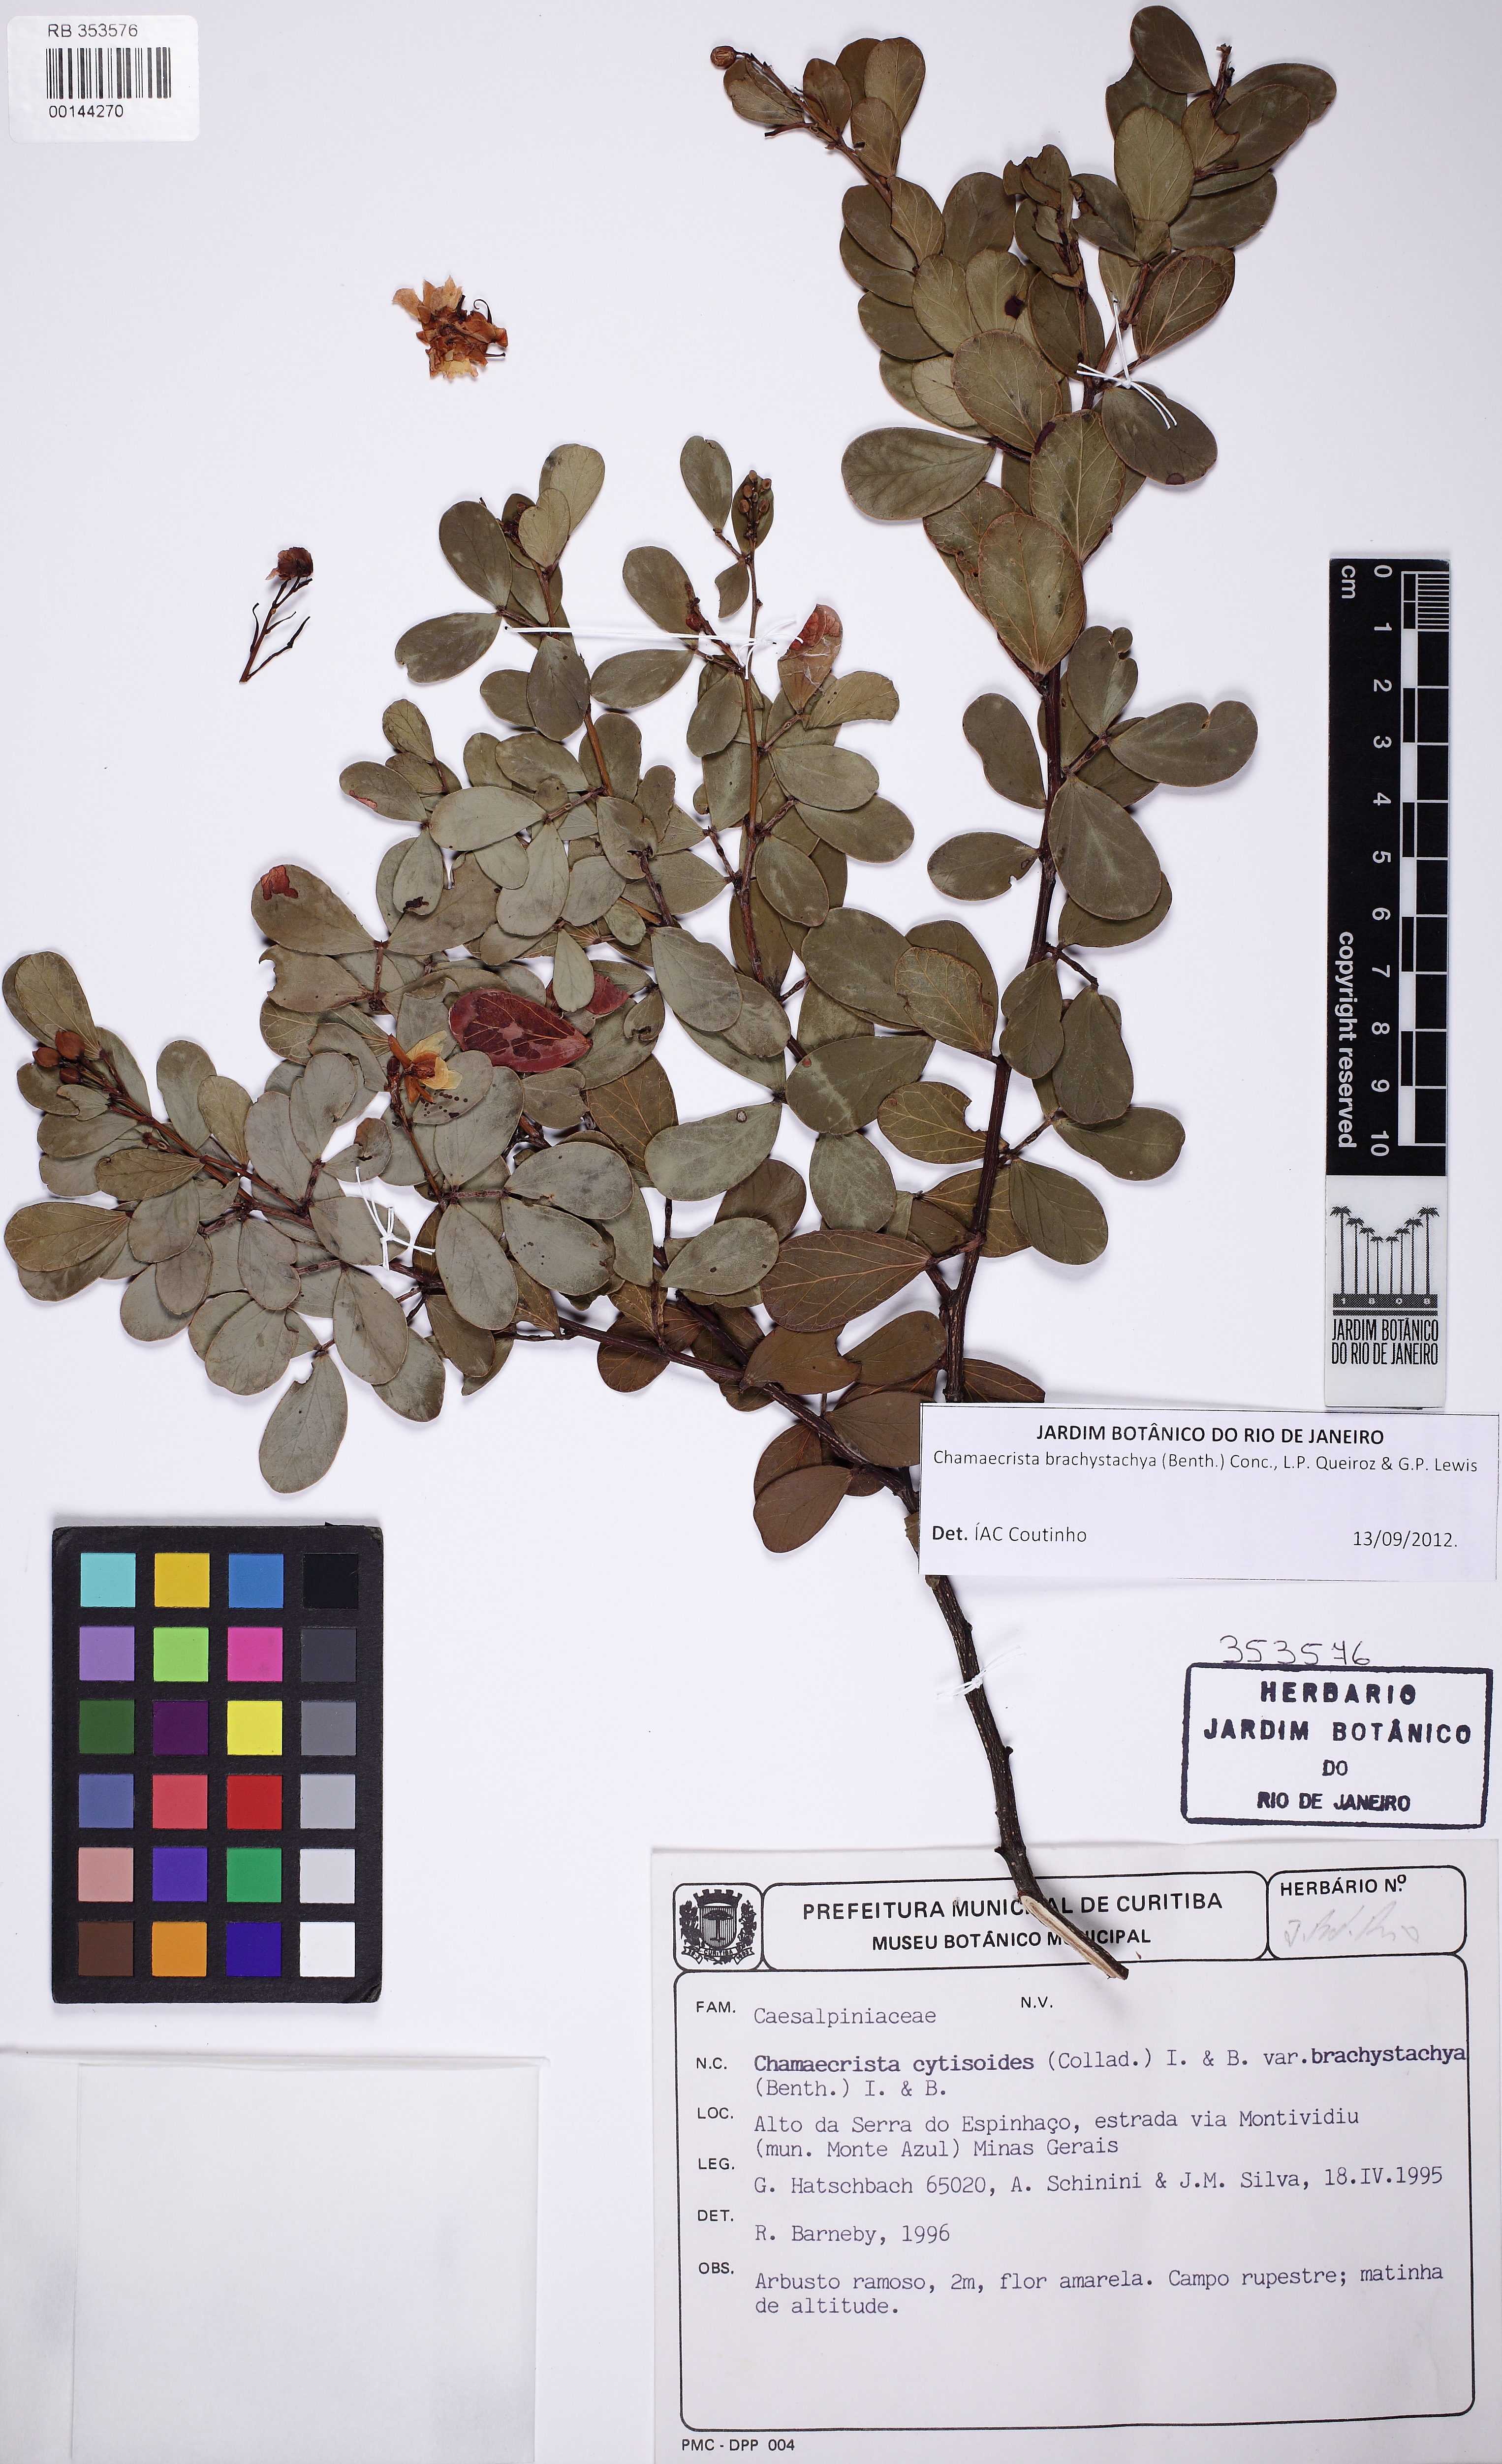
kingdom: Plantae
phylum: Tracheophyta
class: Magnoliopsida
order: Fabales
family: Fabaceae
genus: Chamaecrista
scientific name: Chamaecrista brachystachya
